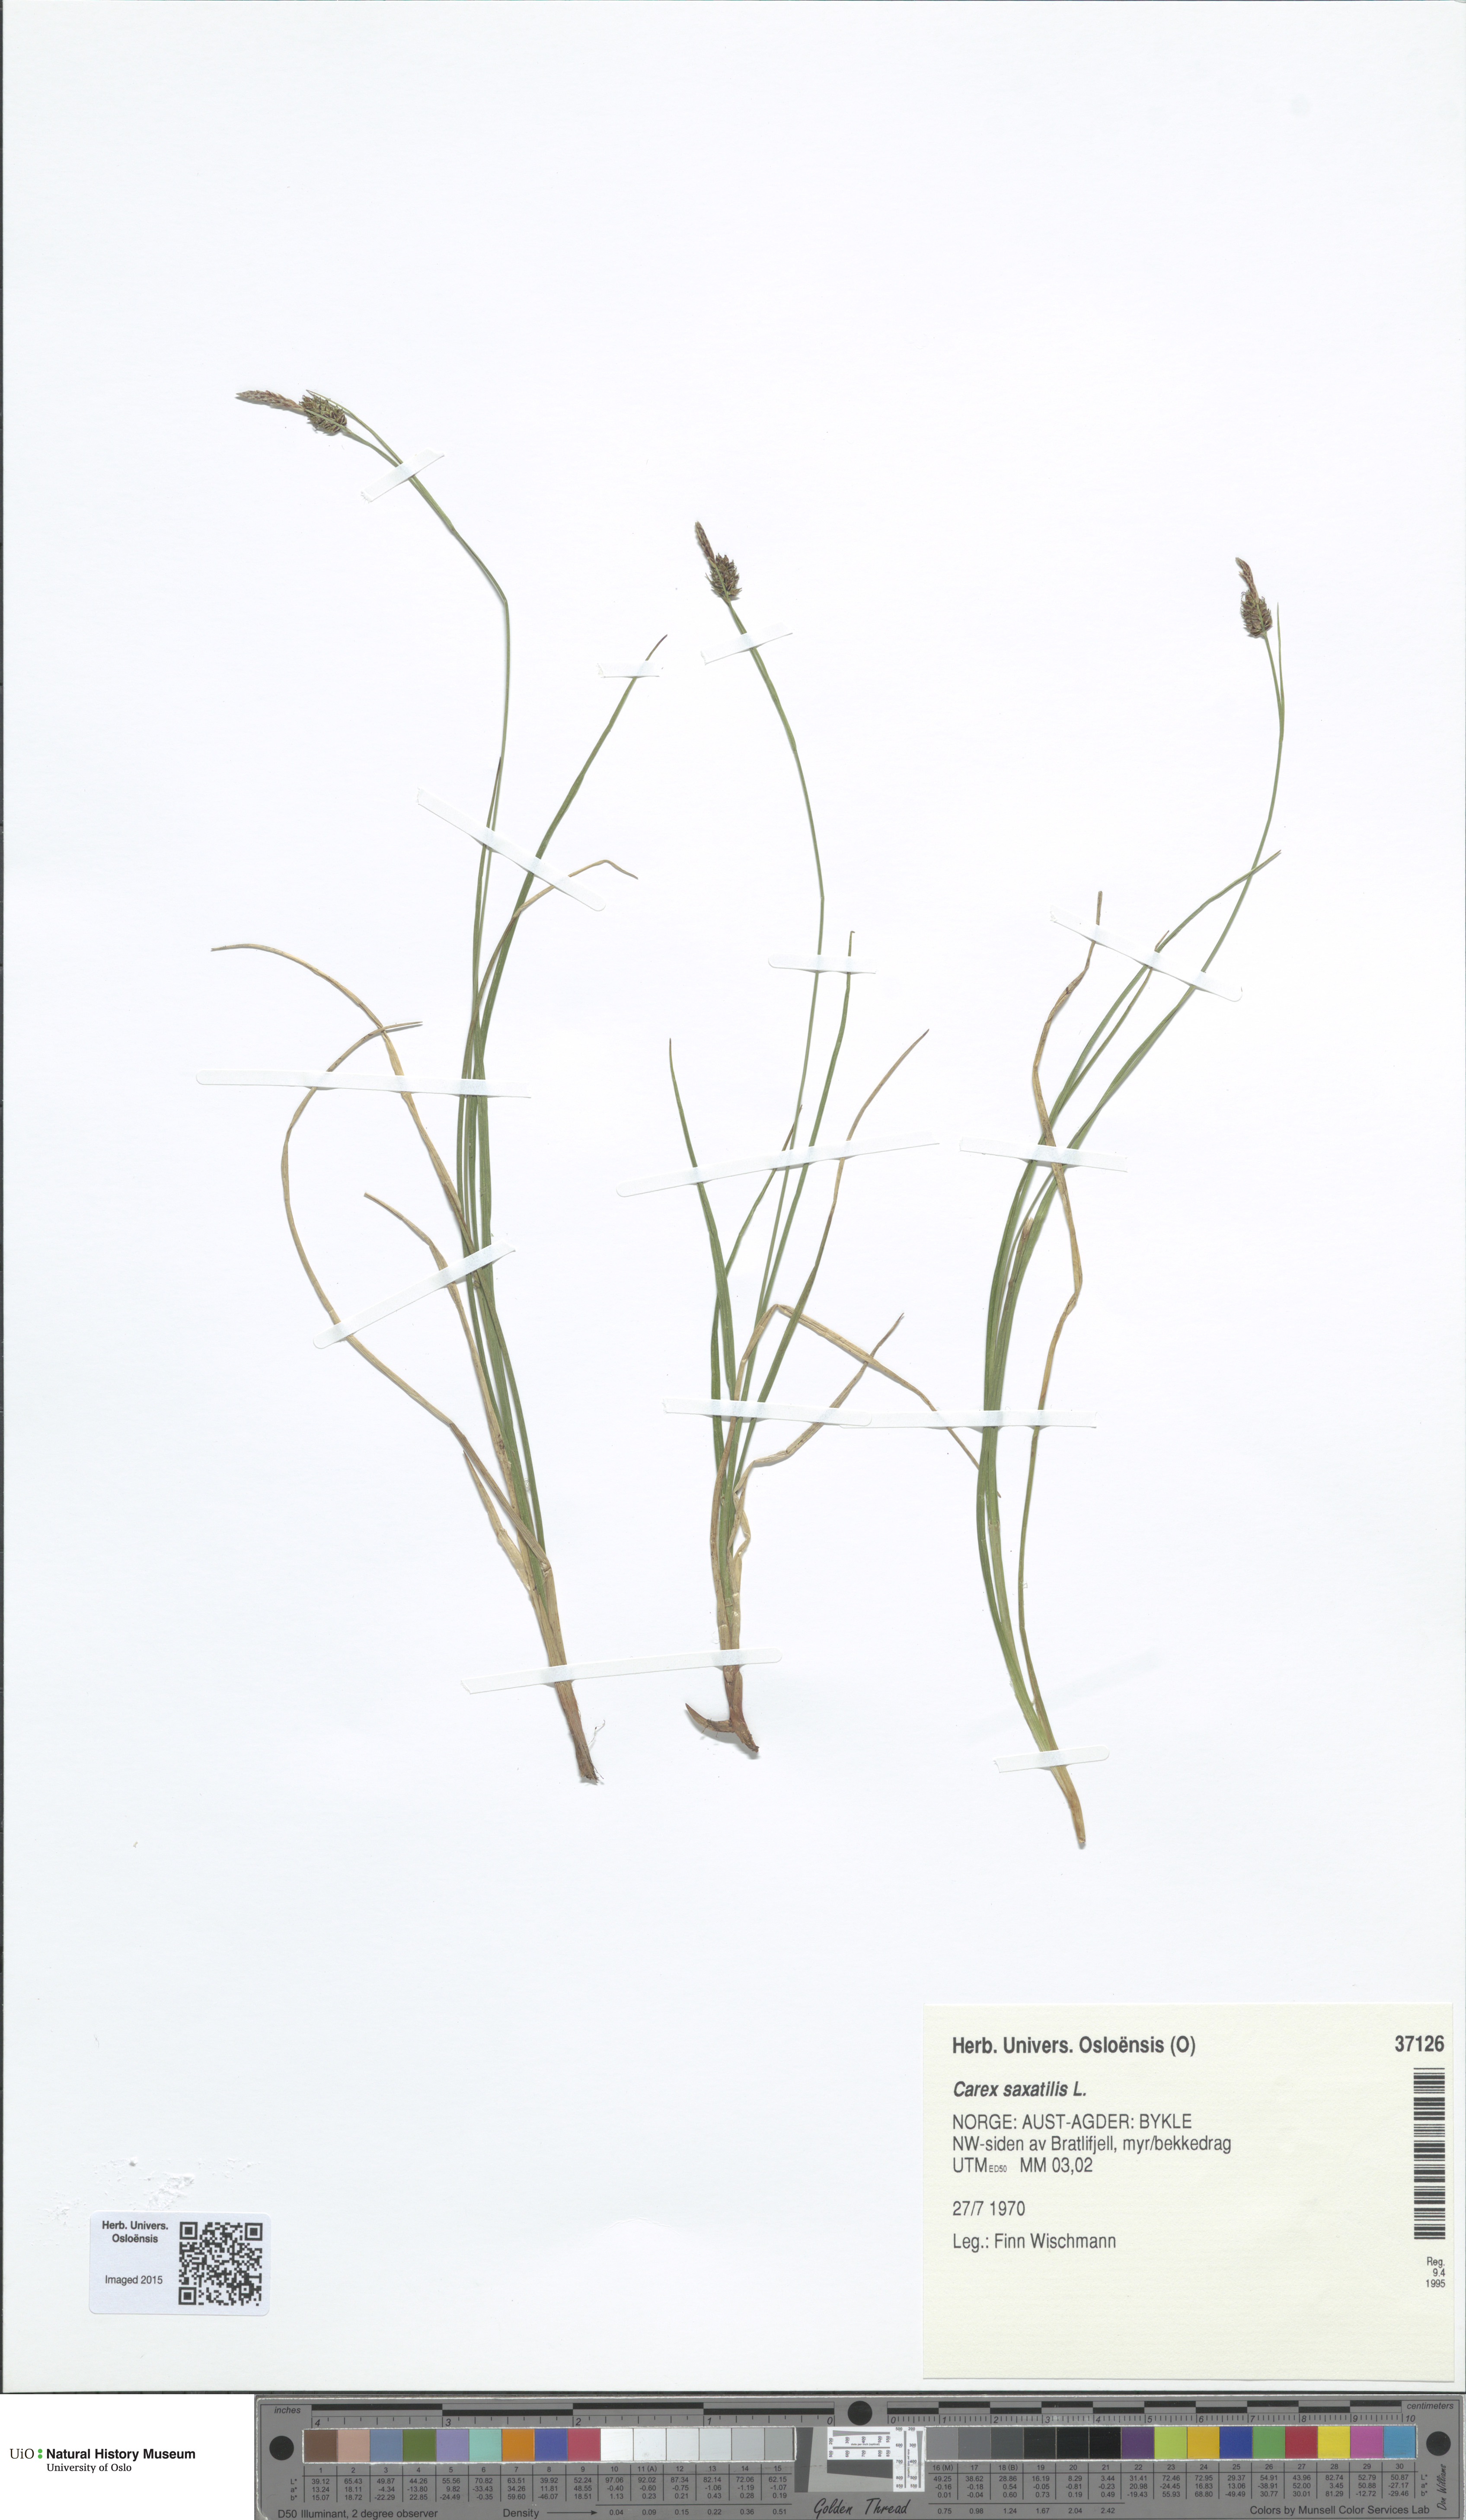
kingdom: Plantae
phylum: Tracheophyta
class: Liliopsida
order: Poales
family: Cyperaceae
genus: Carex
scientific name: Carex saxatilis
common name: Russet sedge
